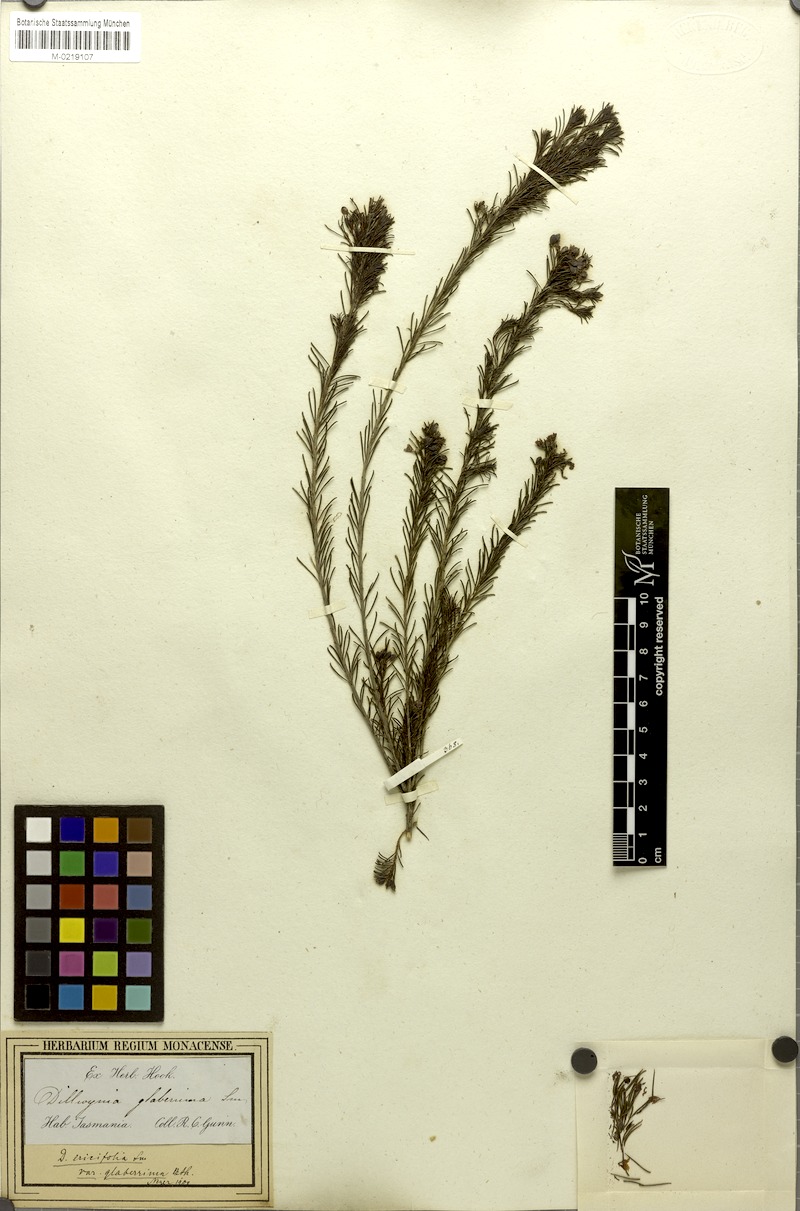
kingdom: Plantae
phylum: Tracheophyta
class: Magnoliopsida
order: Fabales
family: Fabaceae
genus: Dillwynia
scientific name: Dillwynia glaberrima
